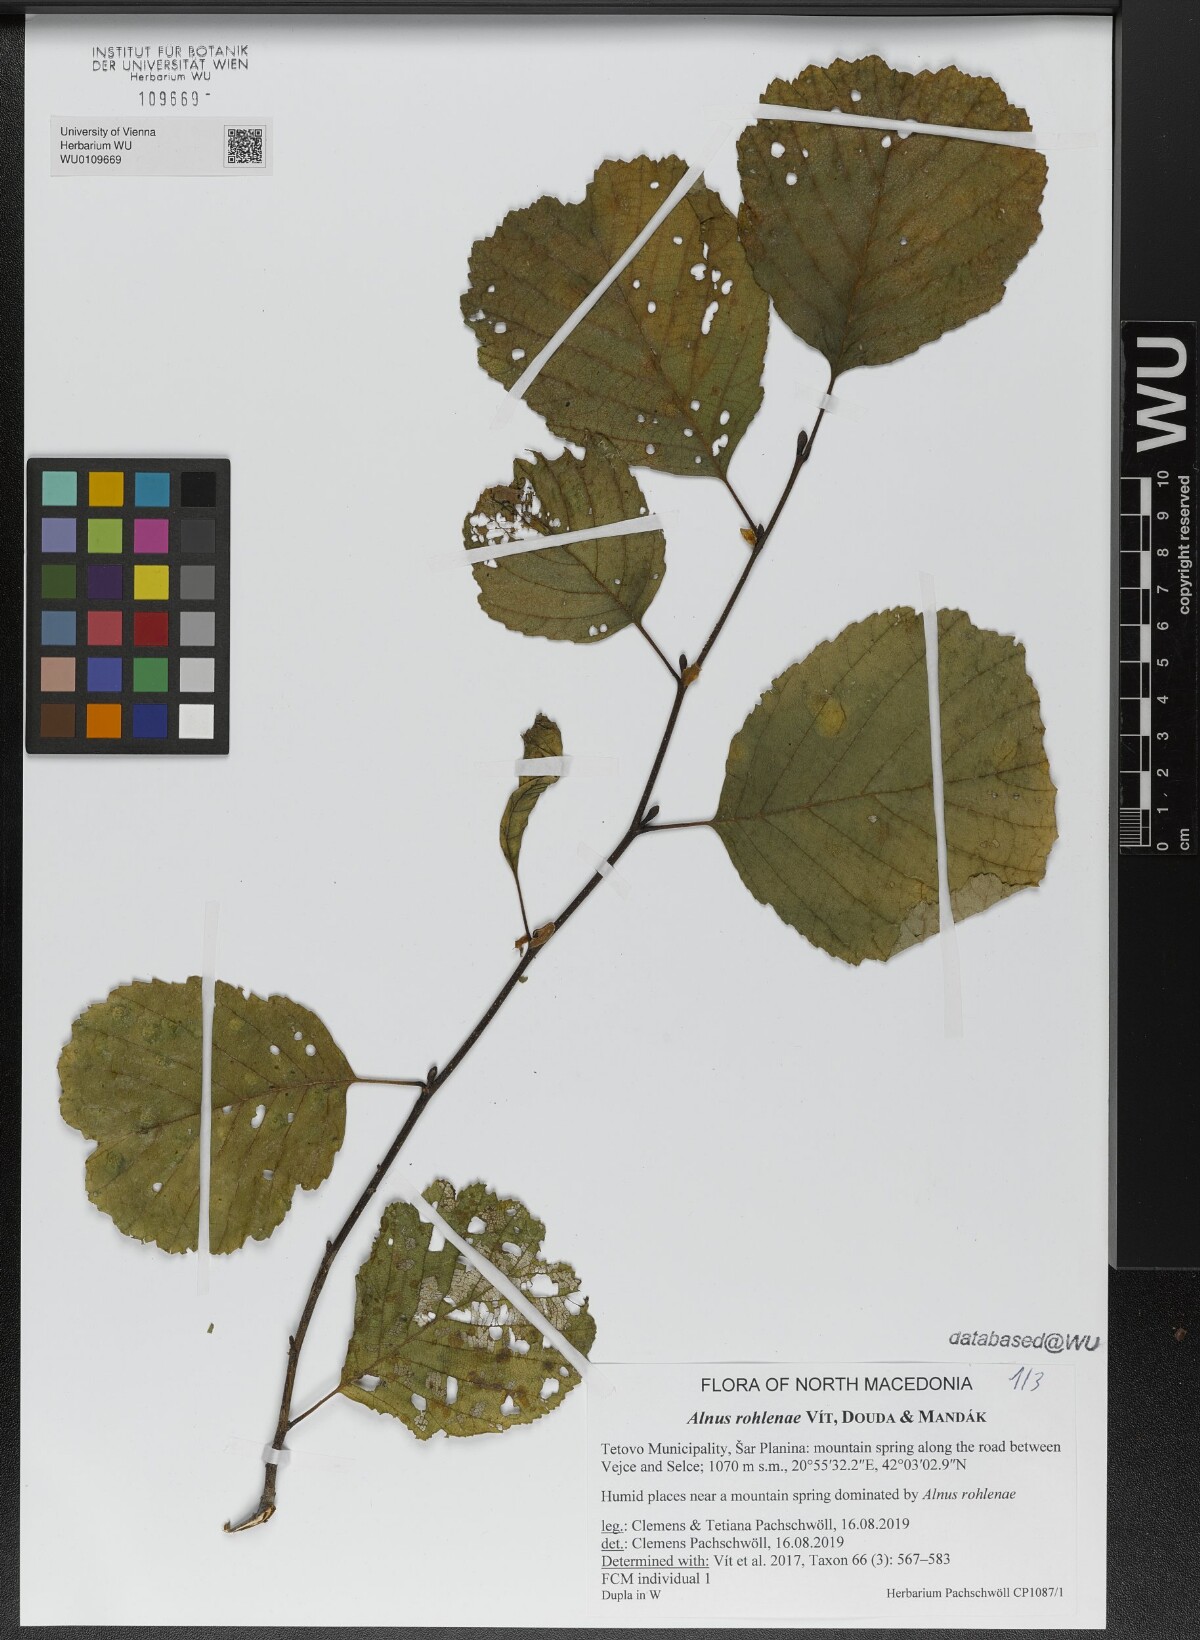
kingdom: Plantae
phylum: Tracheophyta
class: Magnoliopsida
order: Fagales
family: Betulaceae
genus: Alnus
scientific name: Alnus rohlenae
